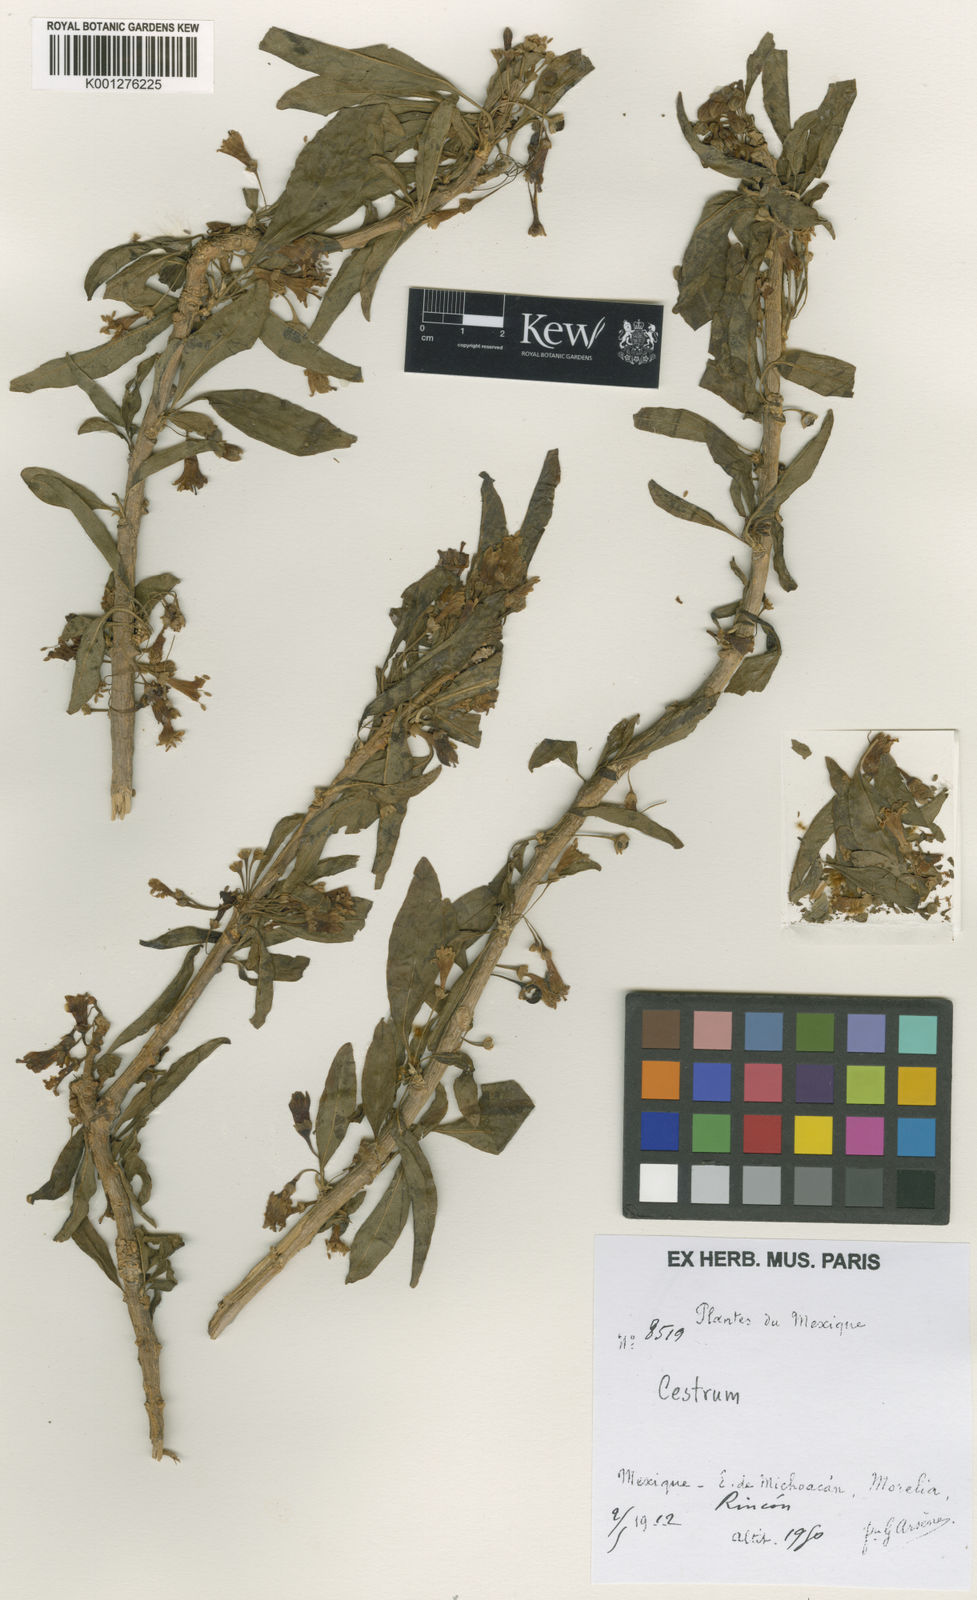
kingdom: Plantae
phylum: Tracheophyta
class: Magnoliopsida
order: Solanales
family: Solanaceae
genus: Cestrum
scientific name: Cestrum
